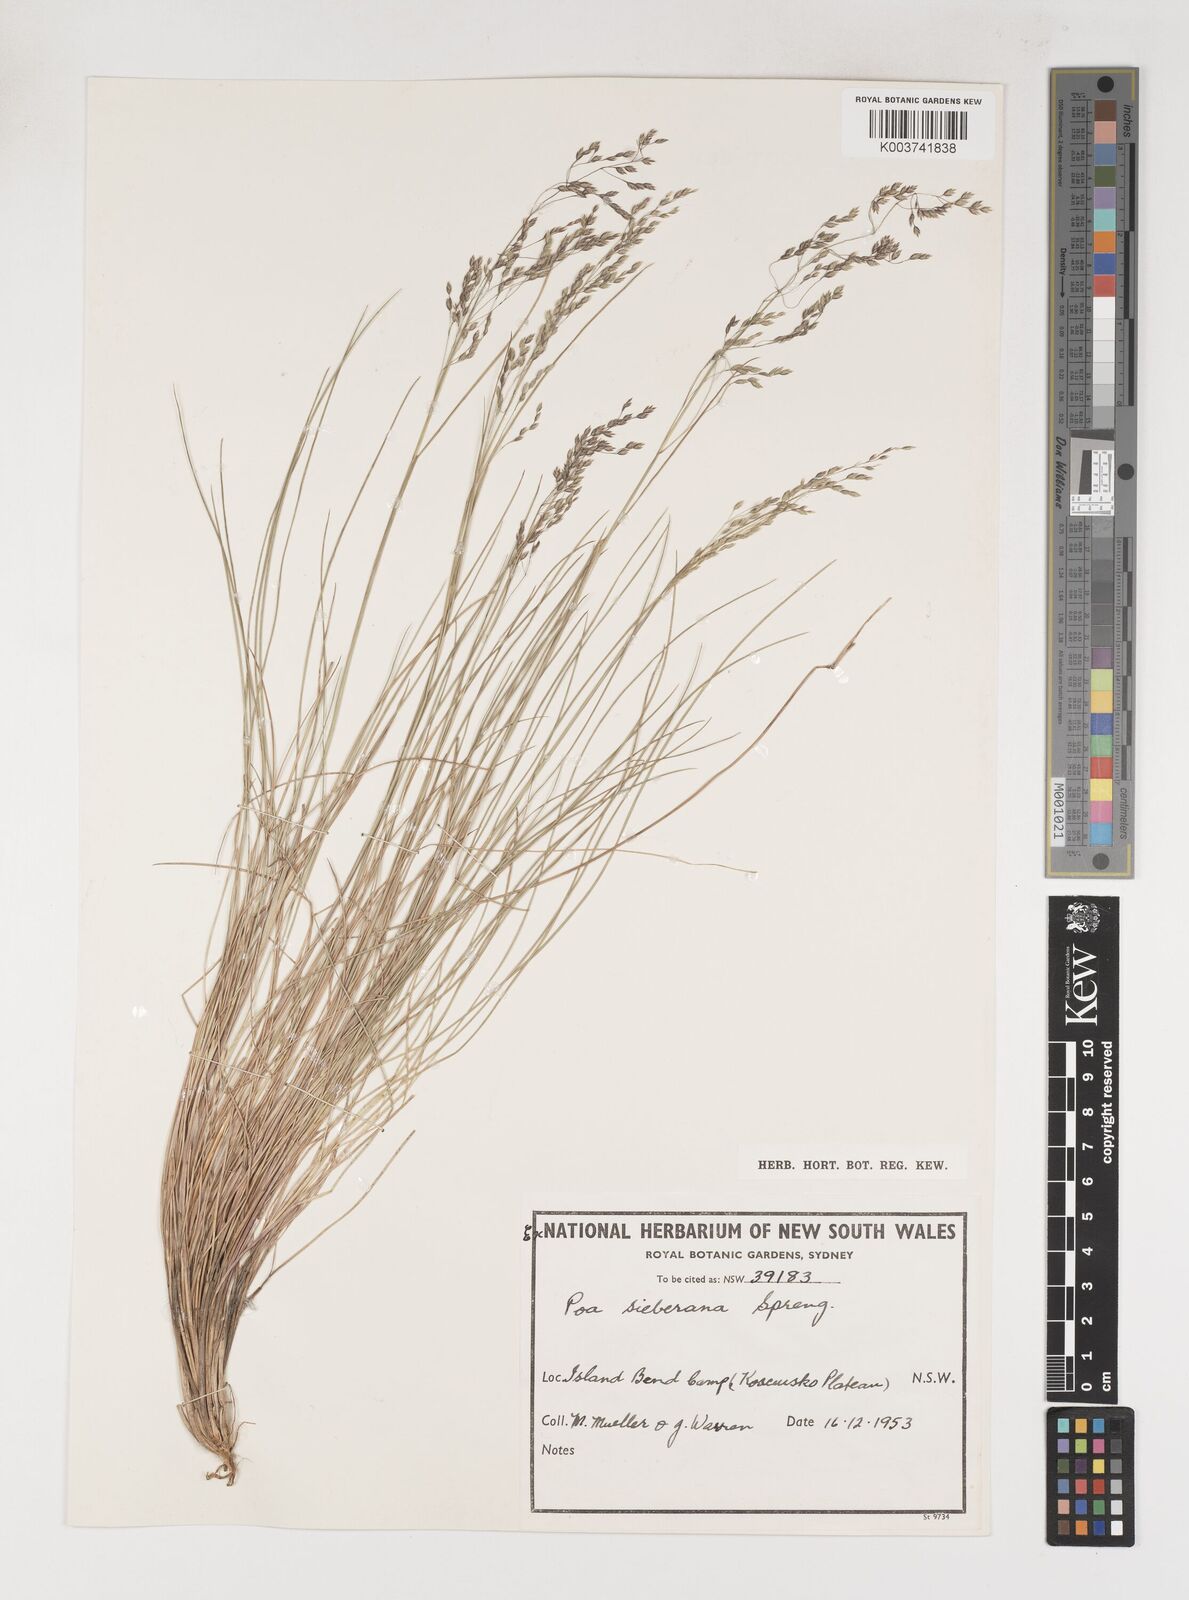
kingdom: Plantae
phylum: Tracheophyta
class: Liliopsida
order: Poales
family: Poaceae
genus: Poa
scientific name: Poa sieberiana
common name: Tussock poa
